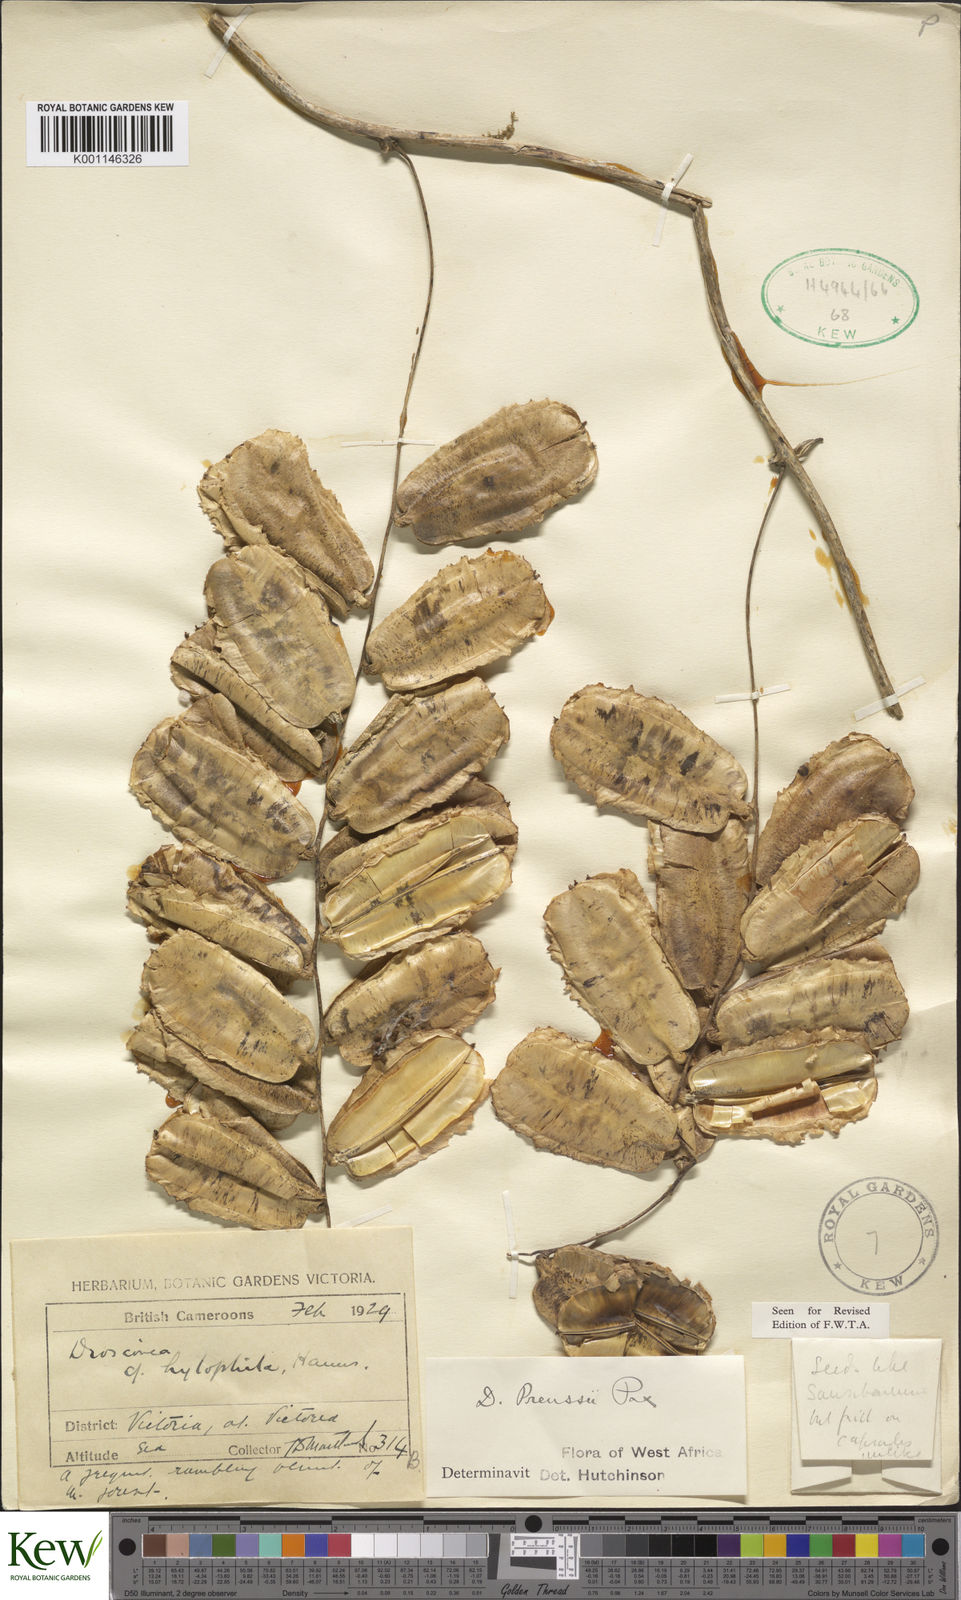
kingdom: Plantae
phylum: Tracheophyta
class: Liliopsida
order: Dioscoreales
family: Dioscoreaceae
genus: Dioscorea
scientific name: Dioscorea preussii
